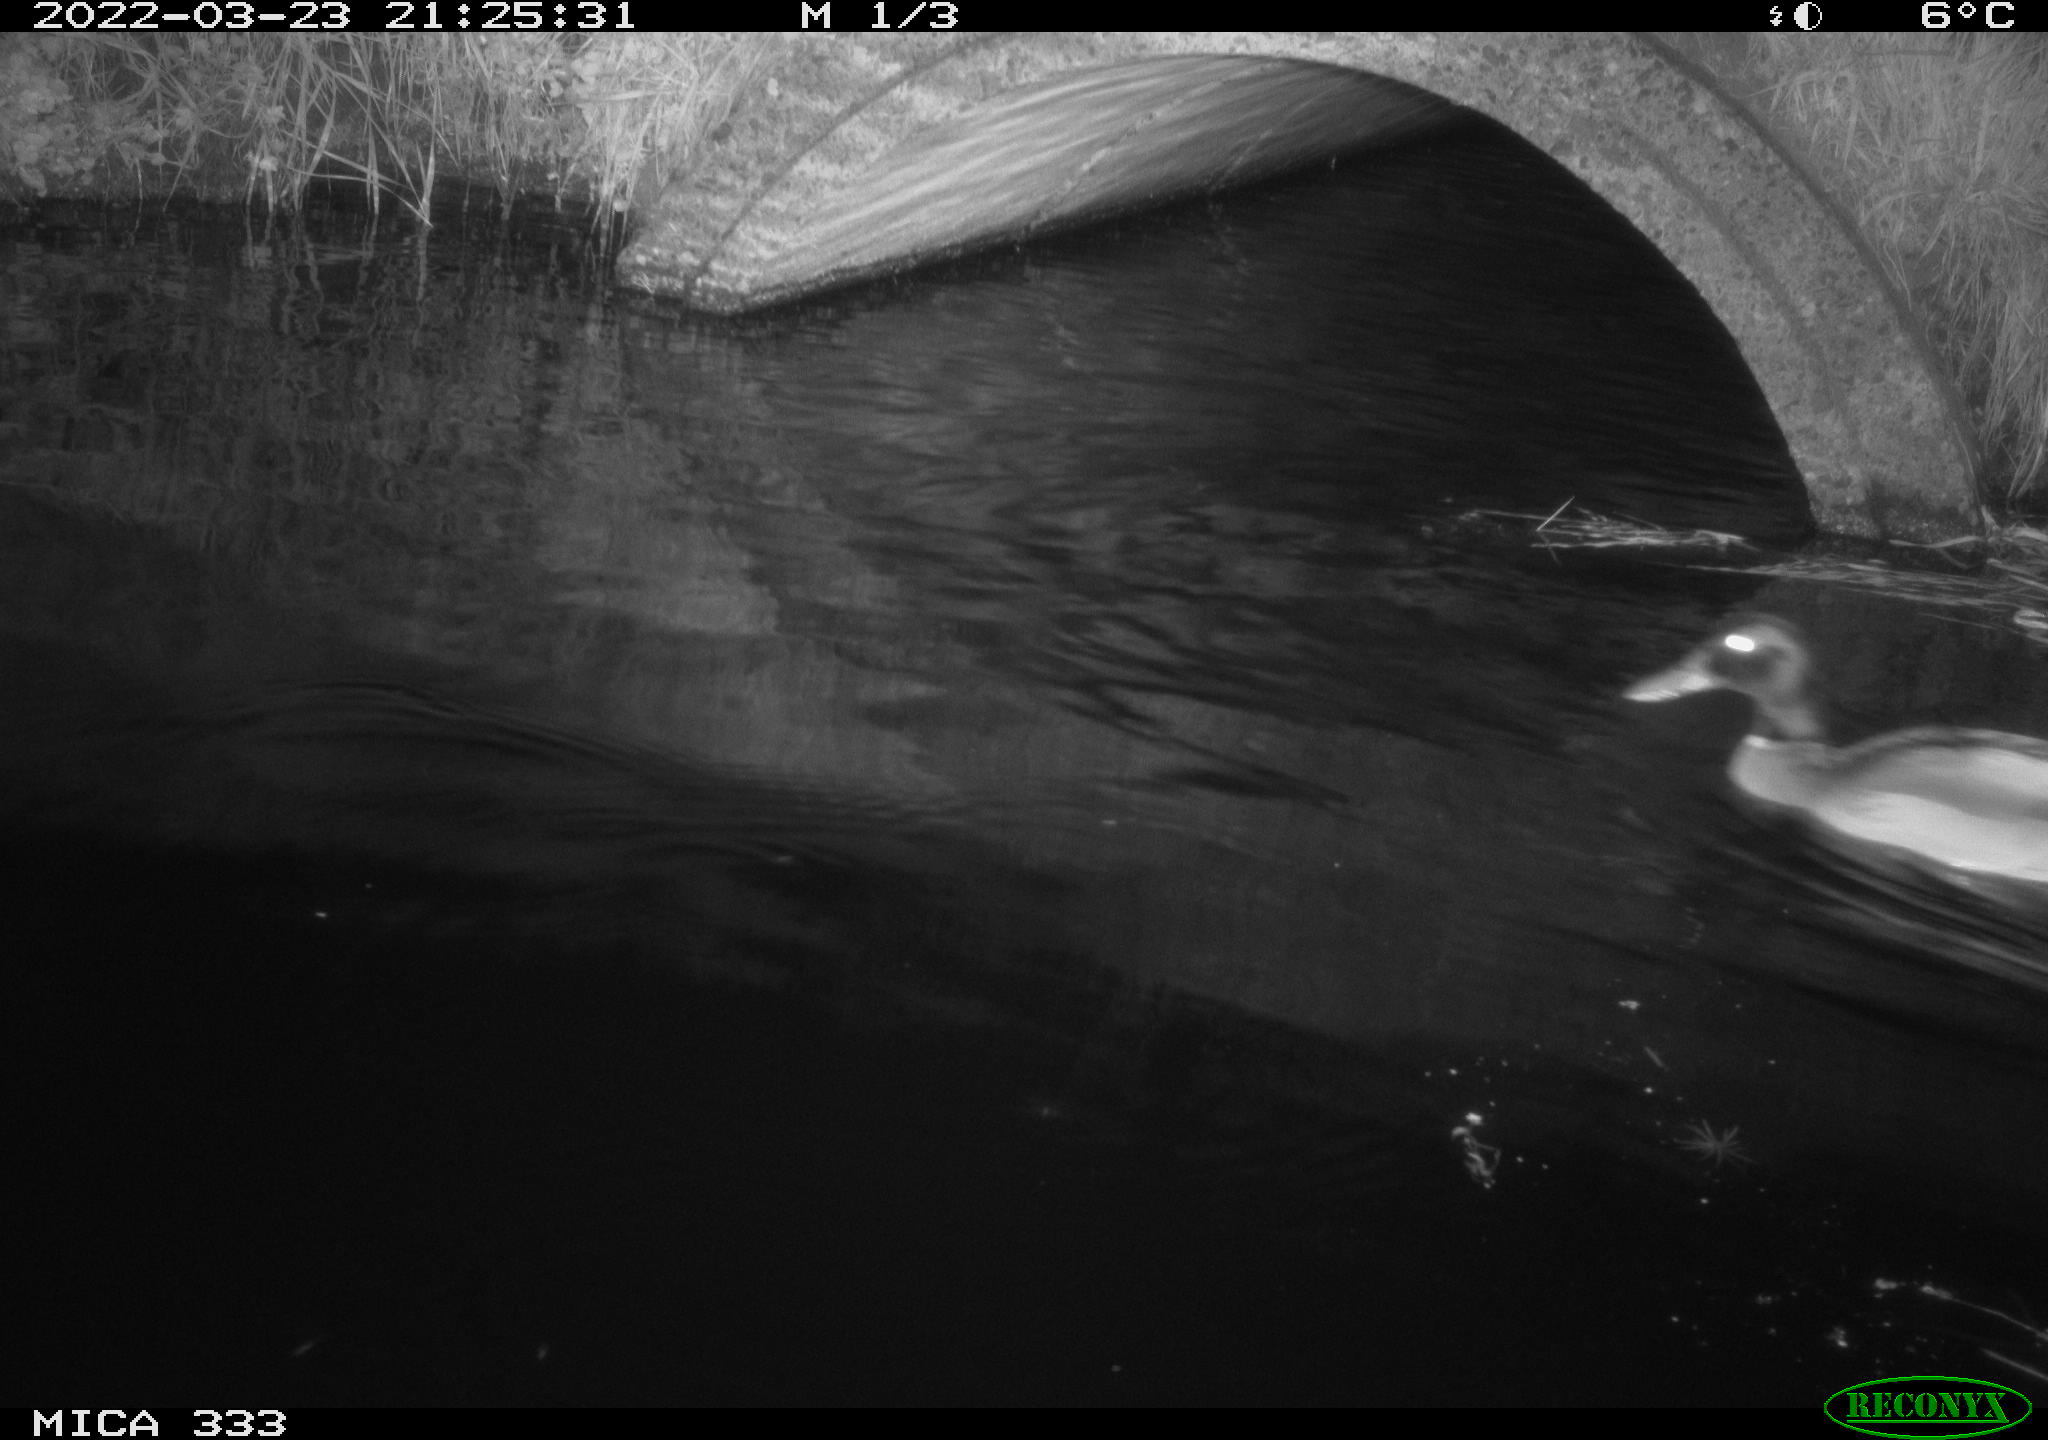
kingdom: Animalia
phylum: Chordata
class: Aves
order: Anseriformes
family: Anatidae
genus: Anas
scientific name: Anas platyrhynchos
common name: Mallard
